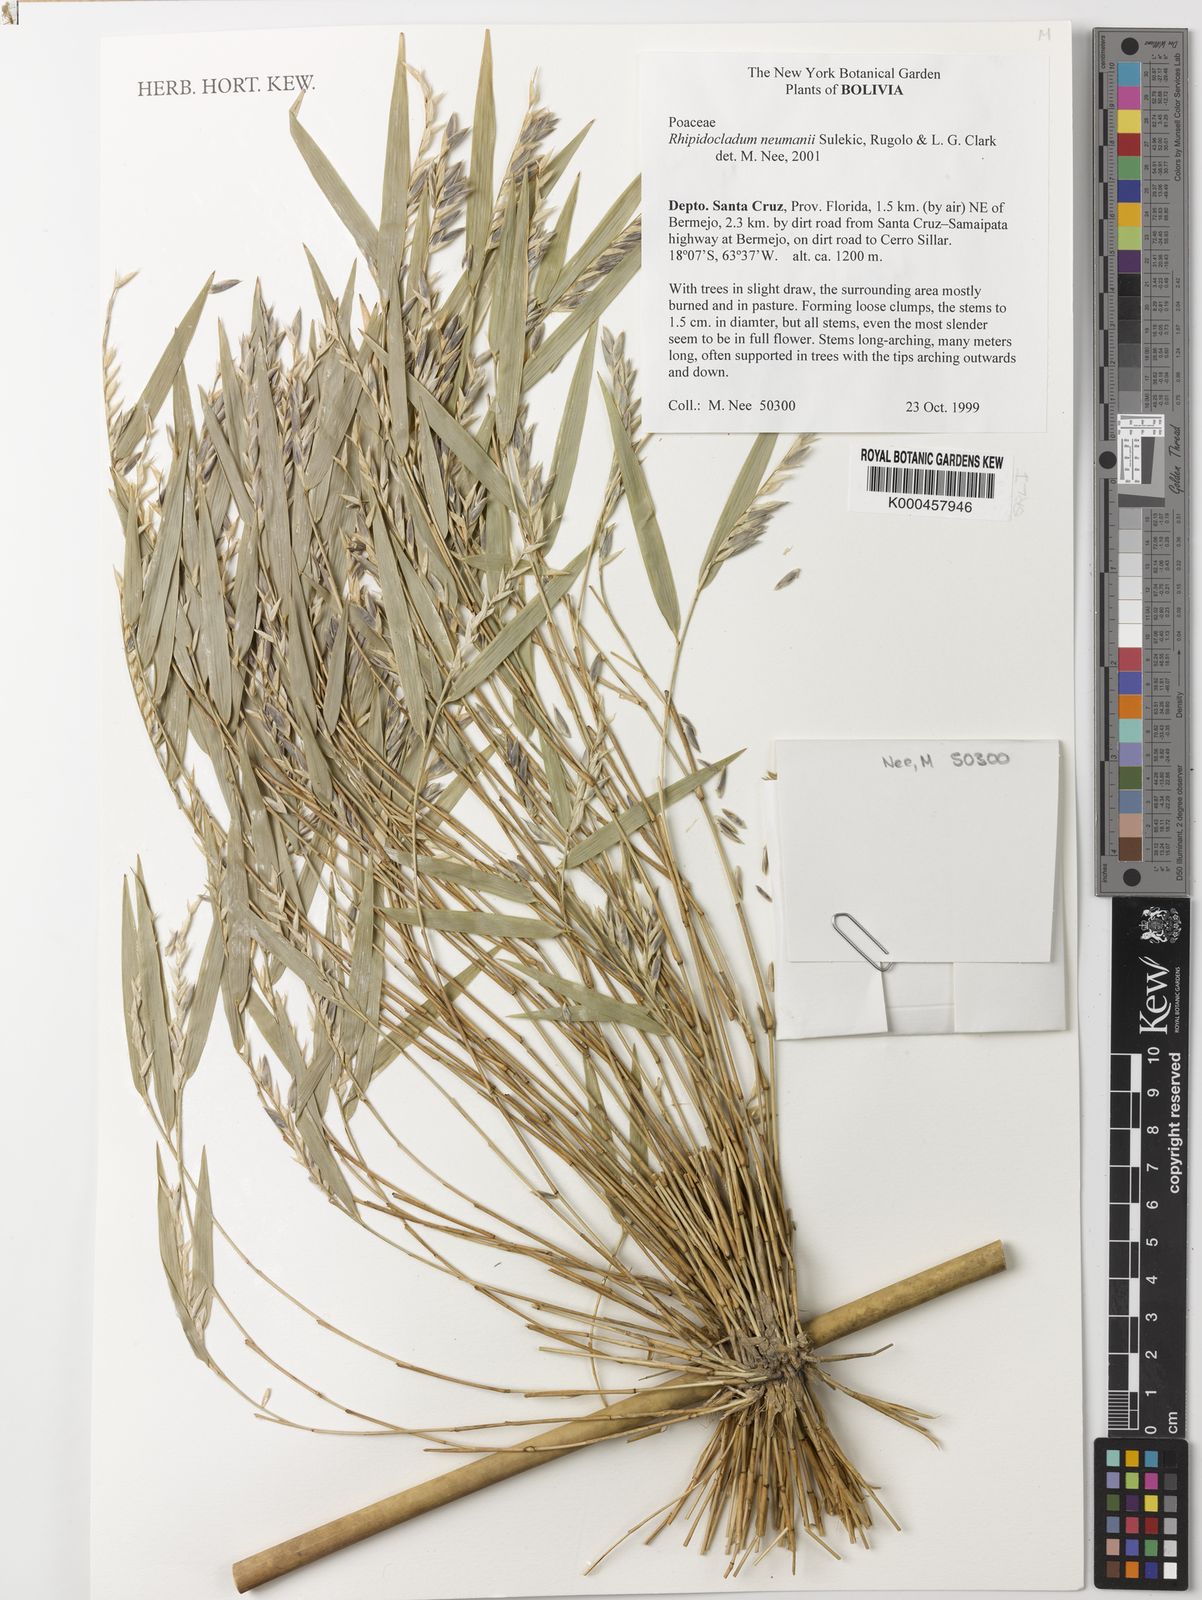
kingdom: Plantae
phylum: Tracheophyta
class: Liliopsida
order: Poales
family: Poaceae
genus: Rhipidocladum
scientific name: Rhipidocladum
